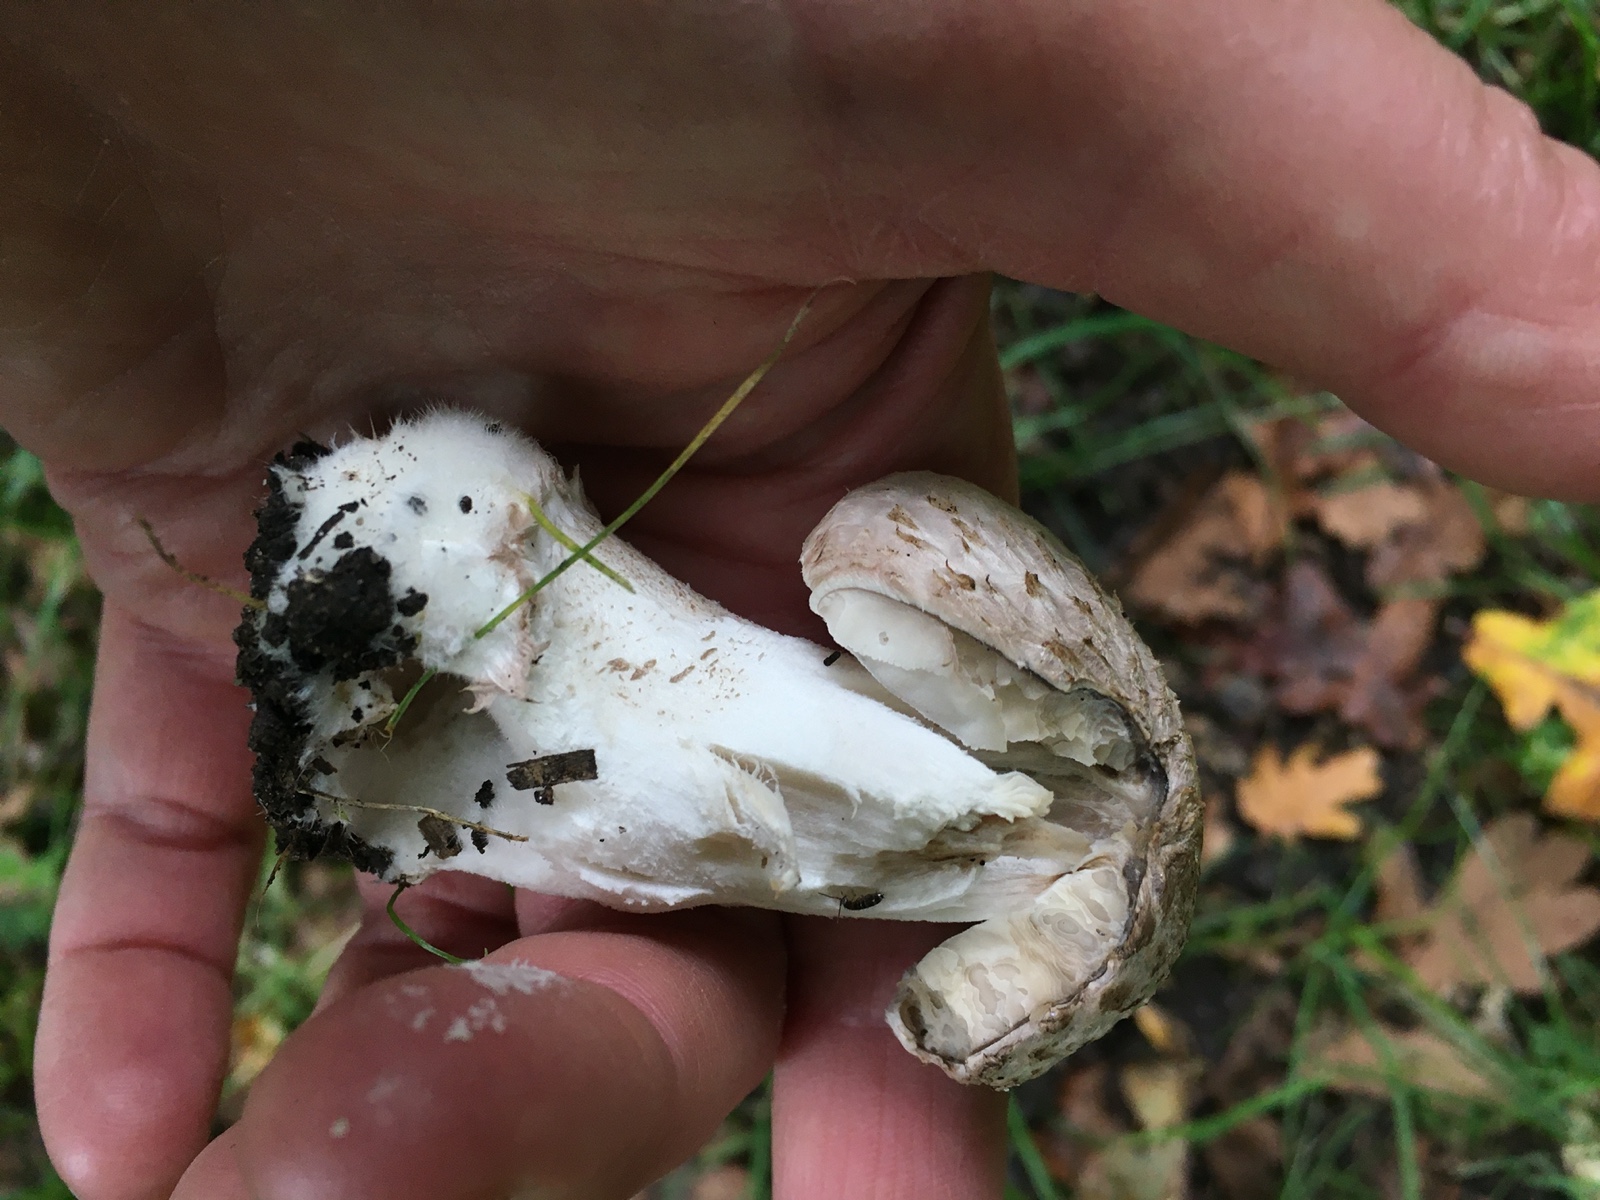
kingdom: Fungi
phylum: Basidiomycota
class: Agaricomycetes
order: Agaricales
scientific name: Agaricales
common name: champignonordenen
